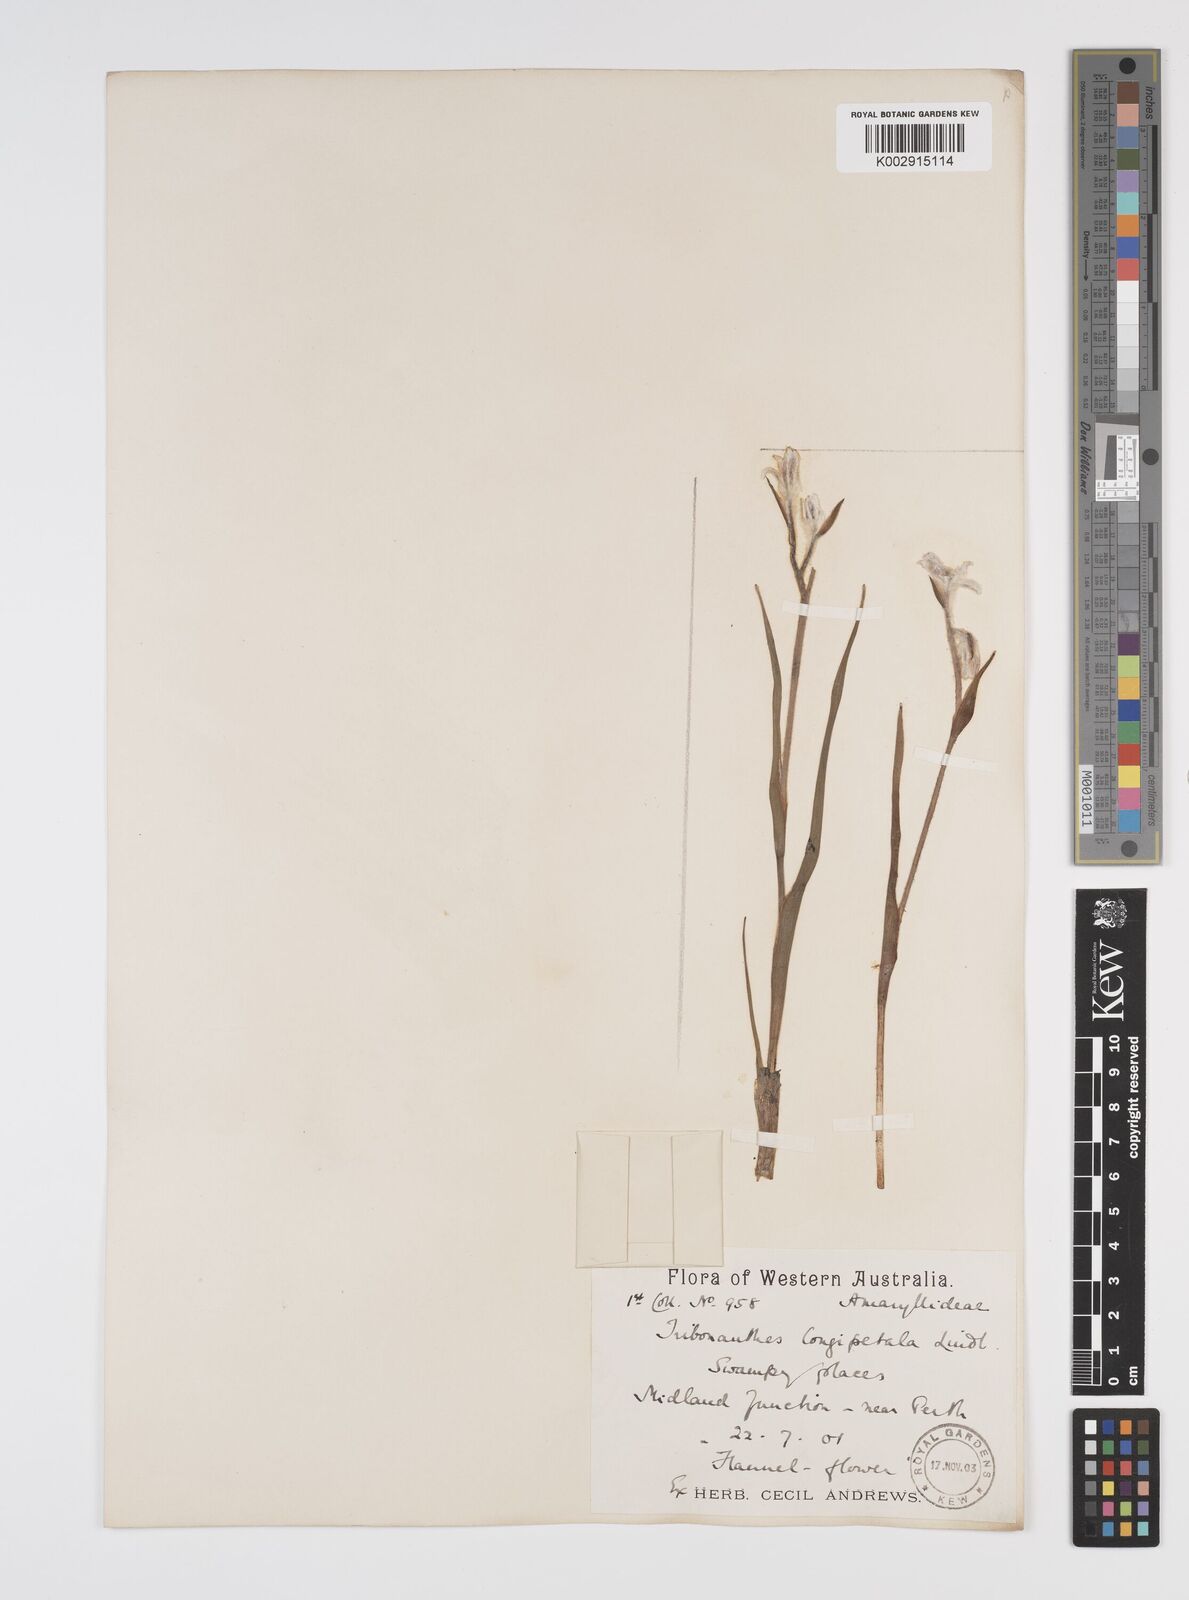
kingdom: Plantae
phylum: Tracheophyta
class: Liliopsida
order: Commelinales
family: Haemodoraceae
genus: Tribonanthes
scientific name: Tribonanthes longipetala
